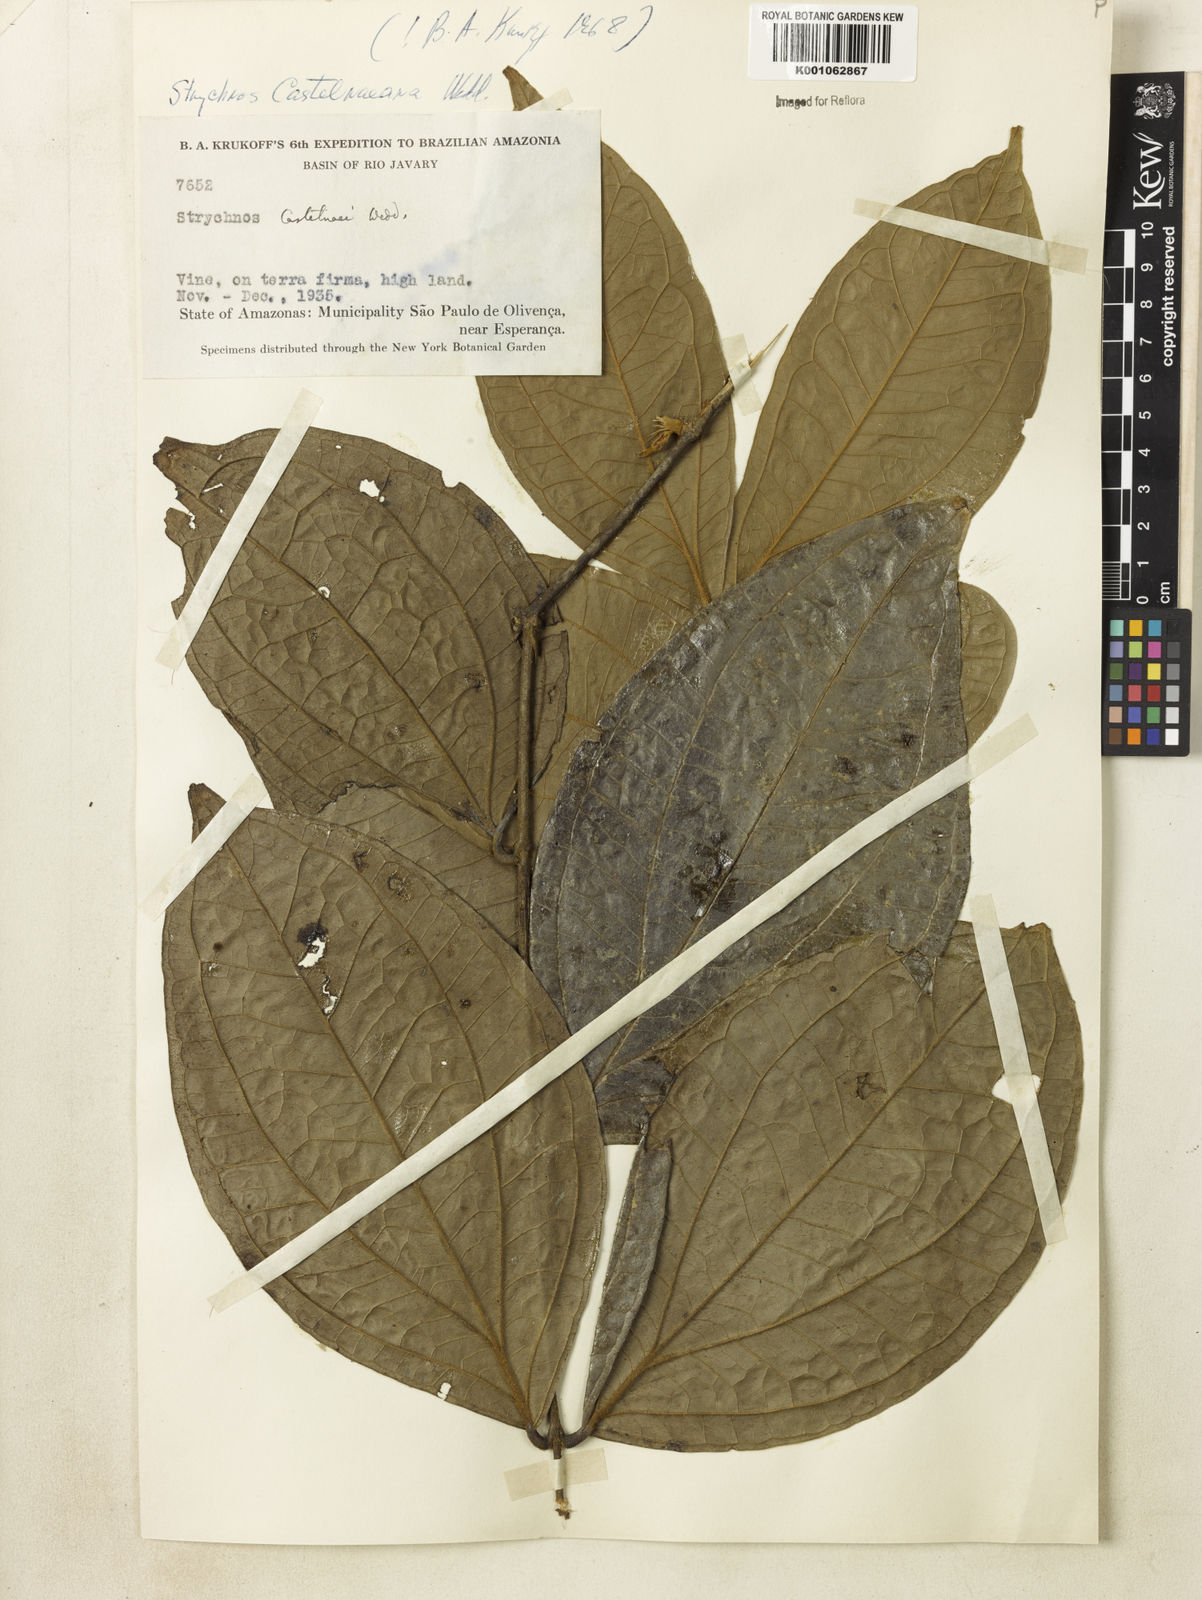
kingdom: Plantae
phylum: Tracheophyta
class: Magnoliopsida
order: Gentianales
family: Loganiaceae
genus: Strychnos
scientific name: Strychnos
